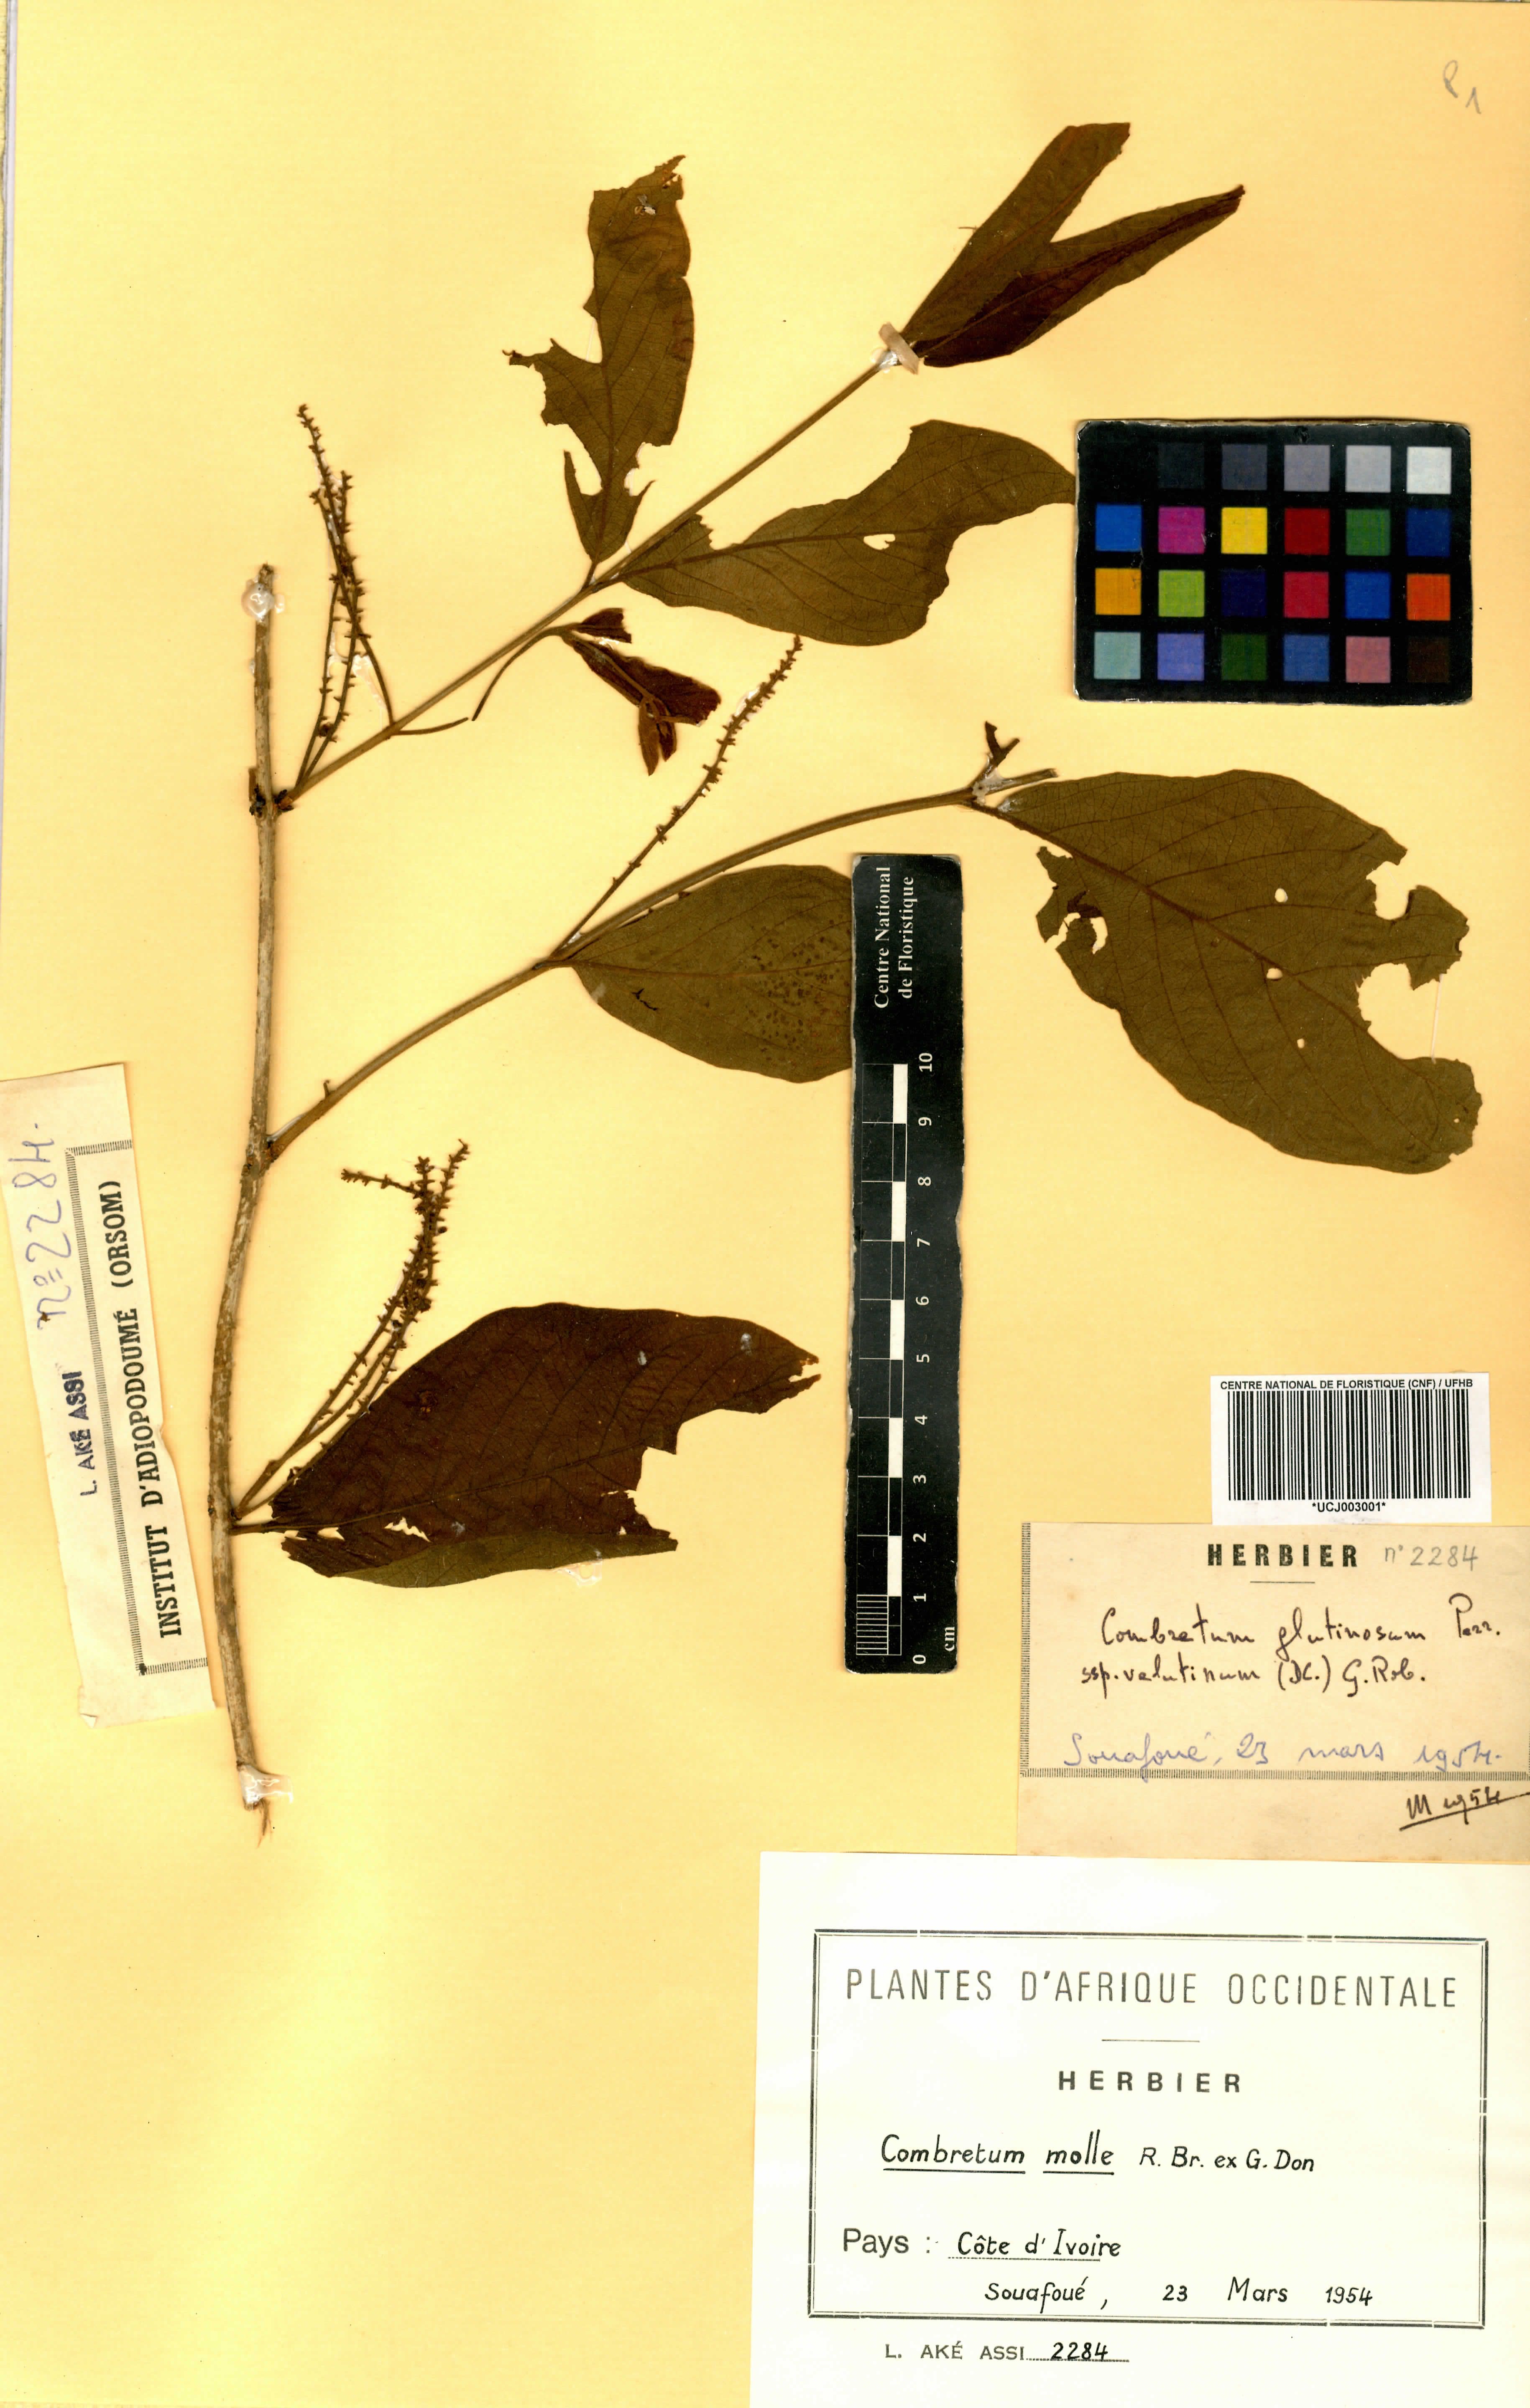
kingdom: Plantae
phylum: Tracheophyta
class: Magnoliopsida
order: Myrtales
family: Combretaceae
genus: Combretum
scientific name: Combretum molle
